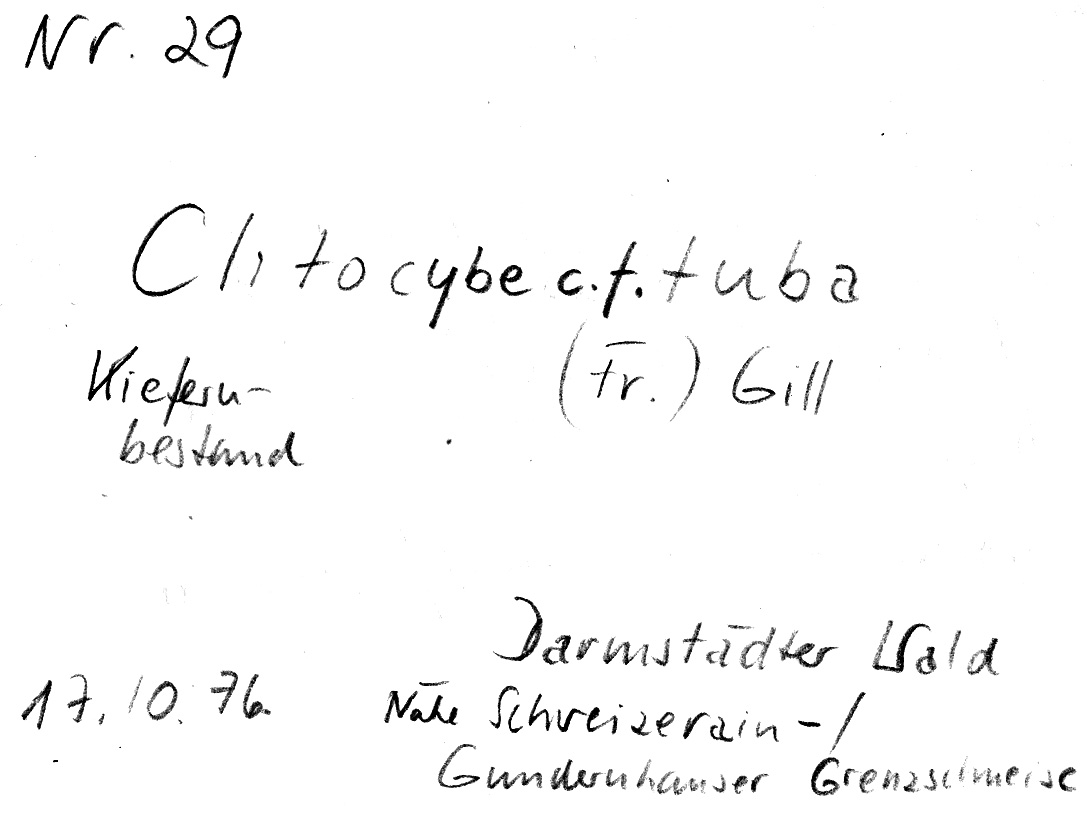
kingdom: Fungi
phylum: Basidiomycota
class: Agaricomycetes
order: Agaricales
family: Tricholomataceae
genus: Leucocybe
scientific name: Leucocybe candicans
